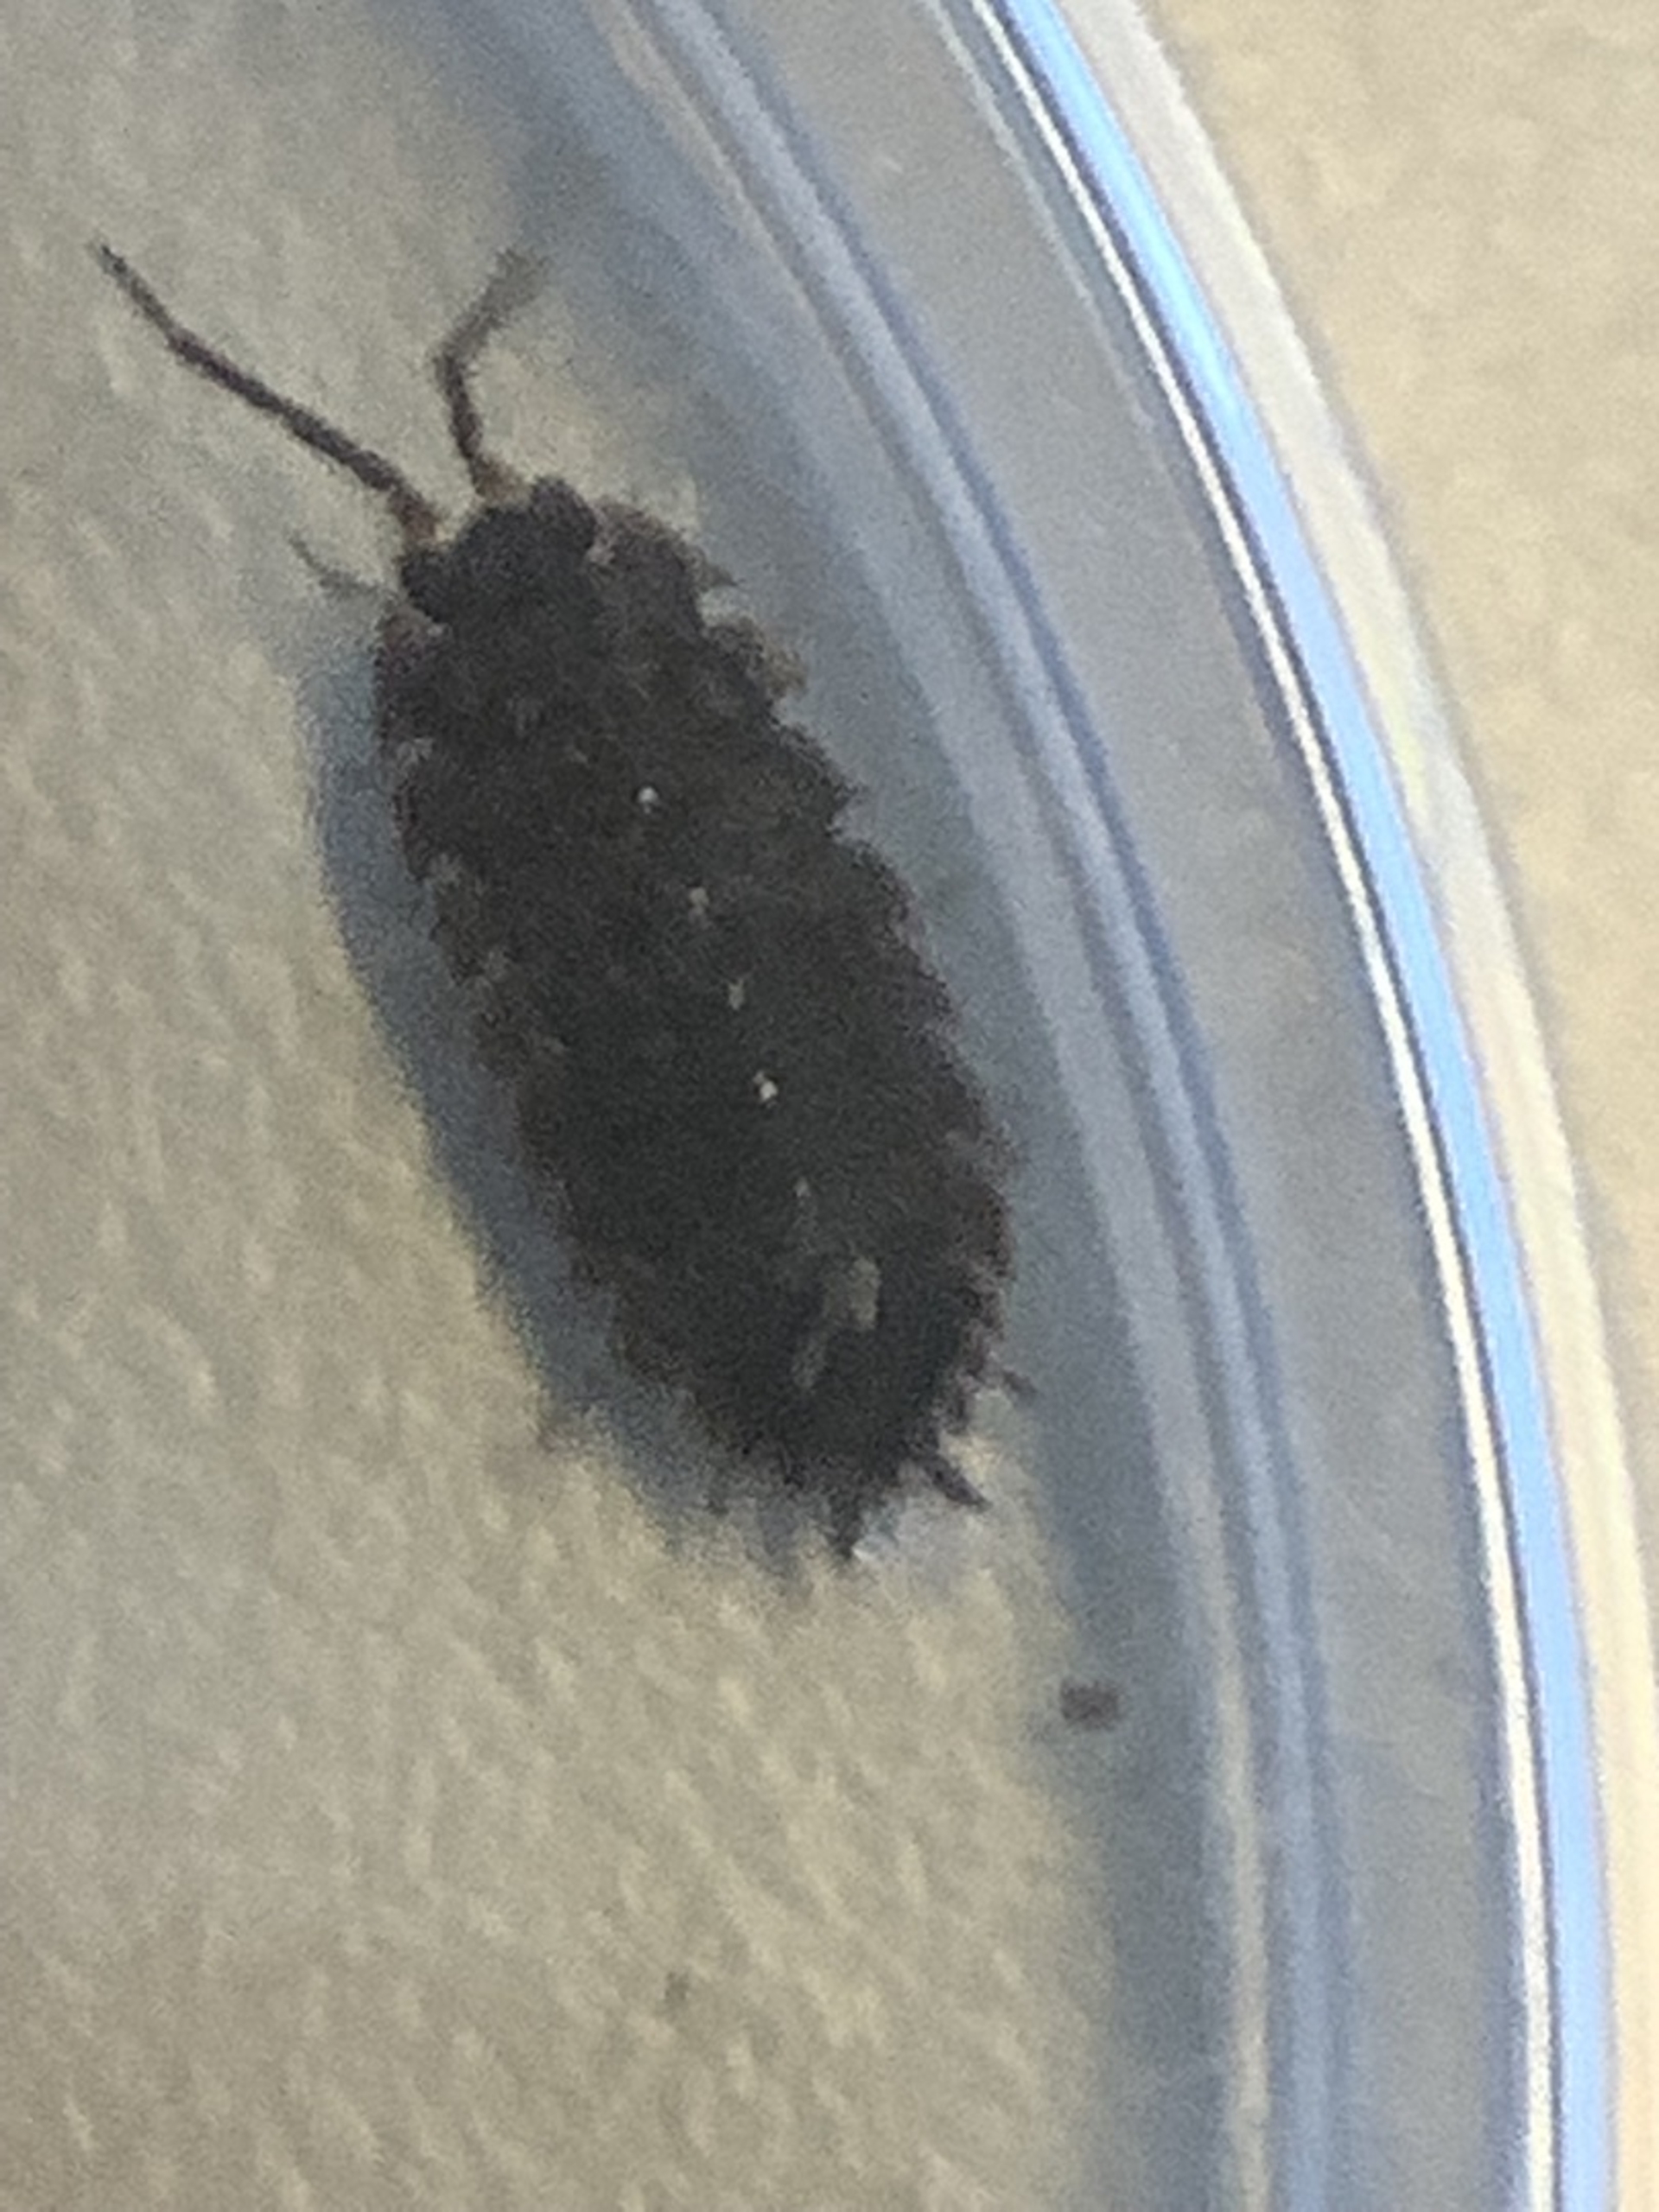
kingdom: Animalia
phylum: Arthropoda
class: Malacostraca
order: Isopoda
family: Porcellionidae
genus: Porcellio
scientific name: Porcellio scaber
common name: Grå bænkebider
